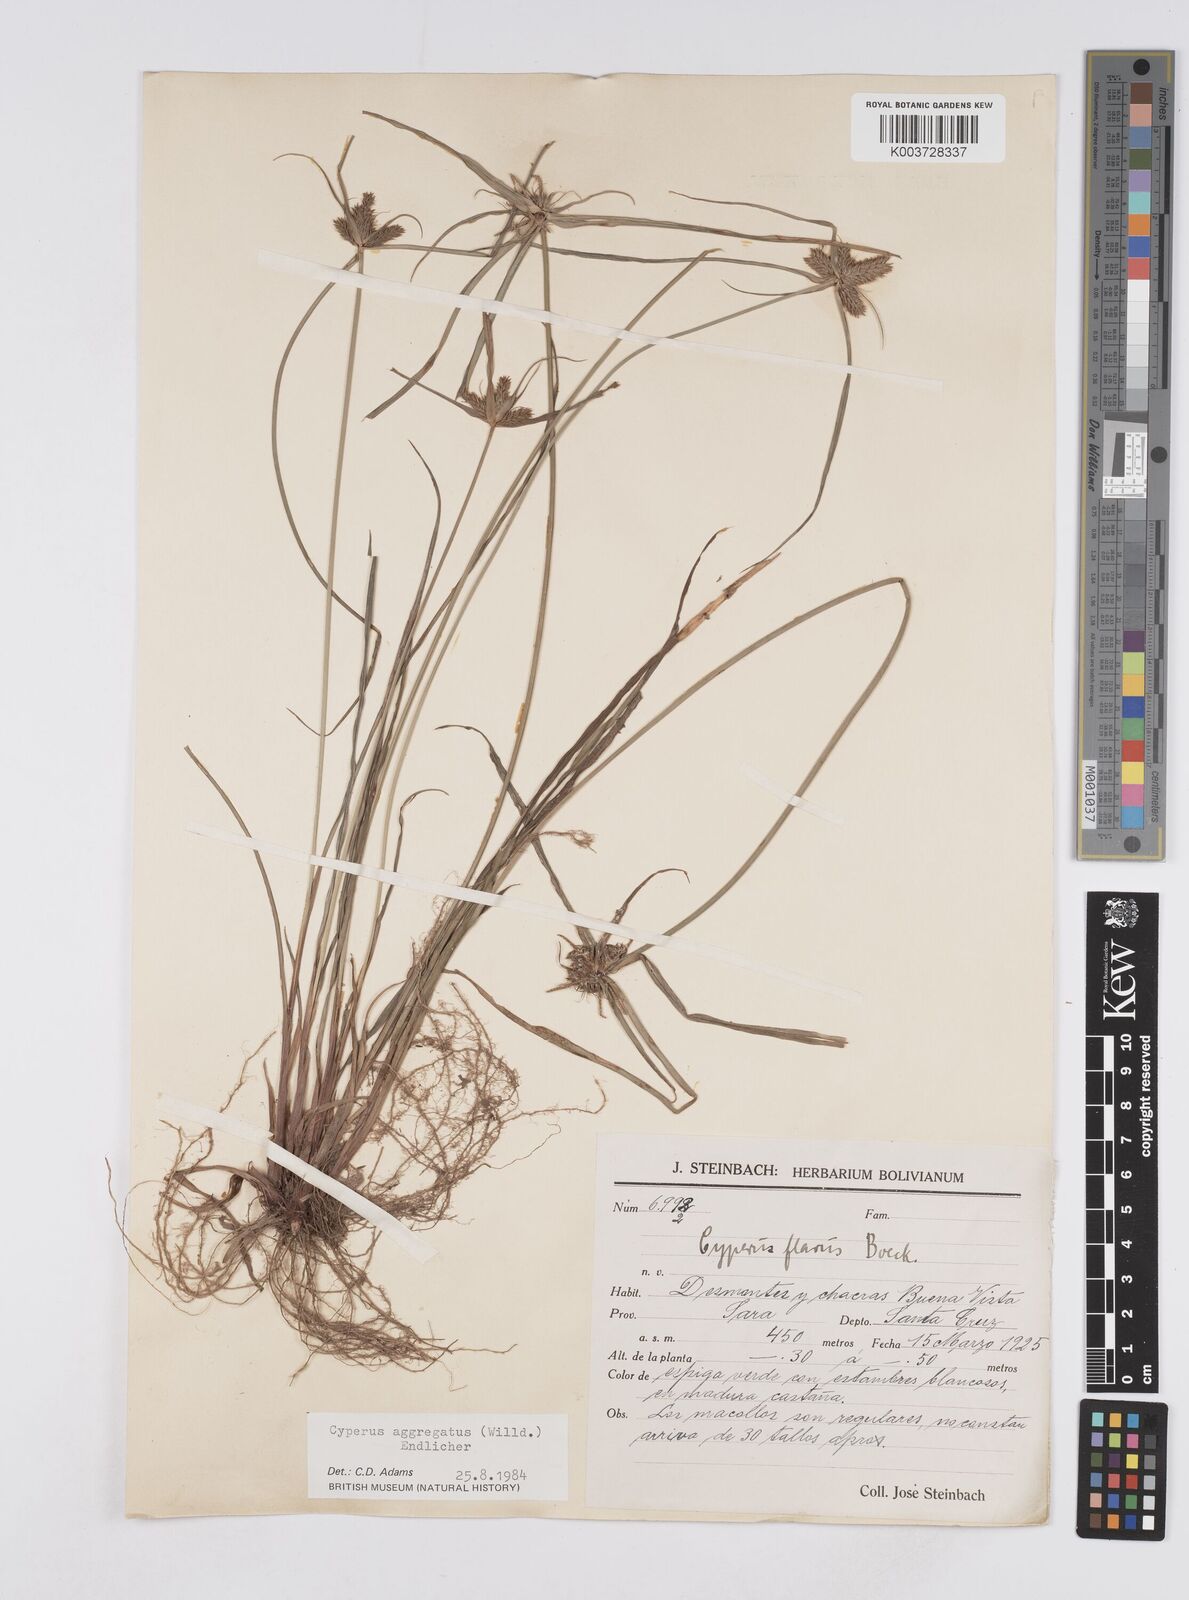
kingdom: Plantae
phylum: Tracheophyta
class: Liliopsida
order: Poales
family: Cyperaceae
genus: Cyperus
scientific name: Cyperus aggregatus
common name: Inflatedscale flatsedge
